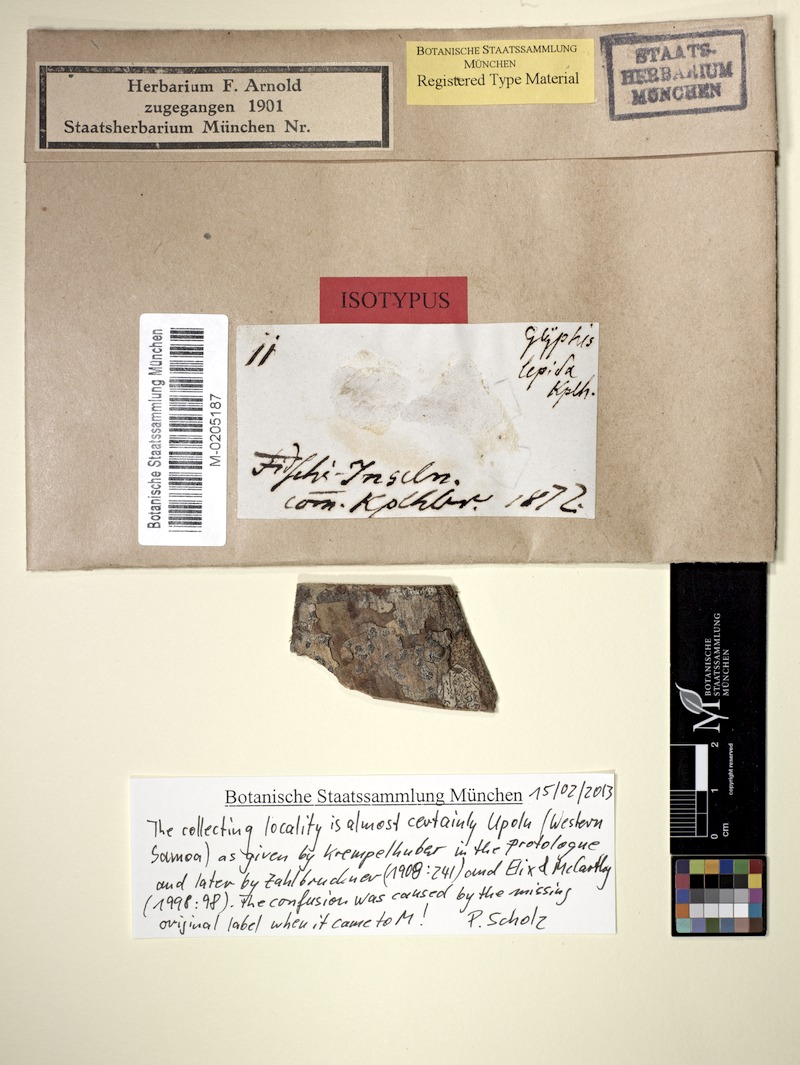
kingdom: Fungi
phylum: Ascomycota
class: Lecanoromycetes
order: Ostropales
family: Graphidaceae
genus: Glyphis
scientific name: Glyphis cicatricosa
